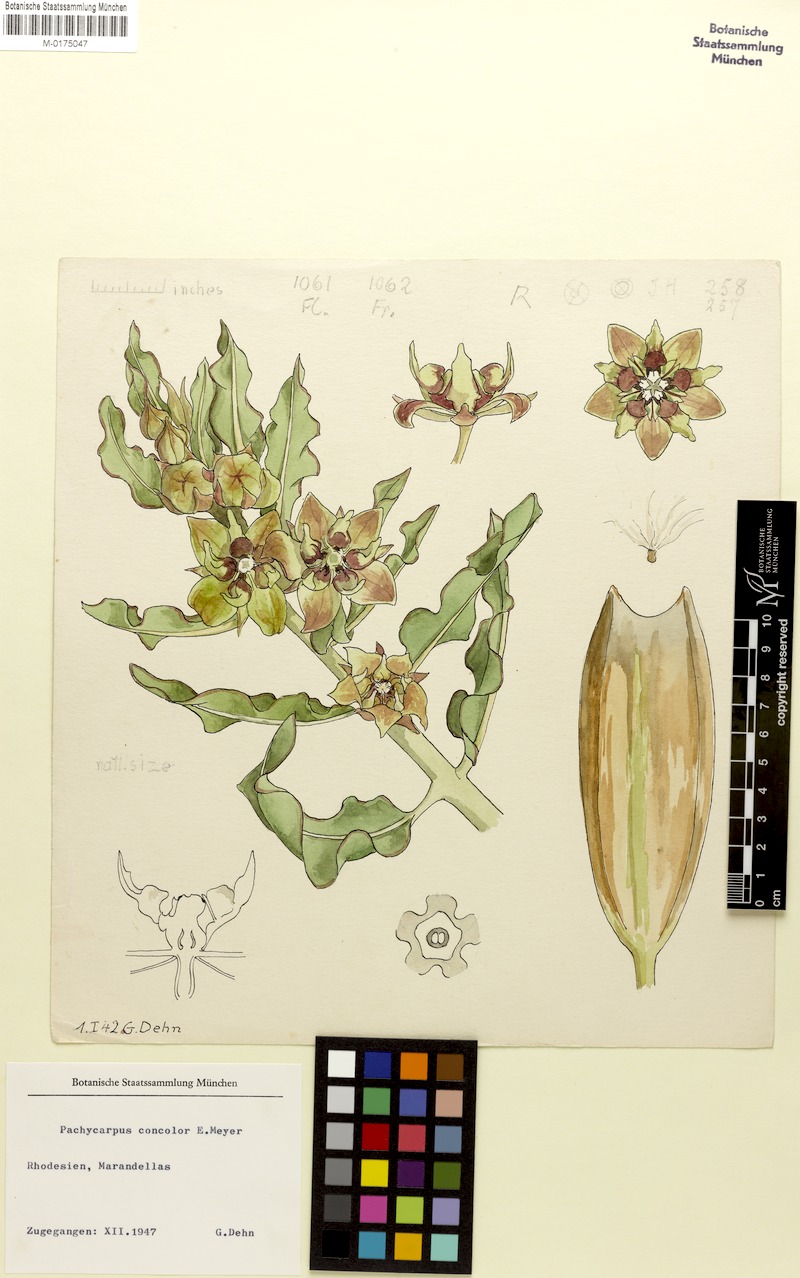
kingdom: Plantae
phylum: Tracheophyta
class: Magnoliopsida
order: Gentianales
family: Apocynaceae
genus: Pachycarpus
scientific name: Pachycarpus concolor
